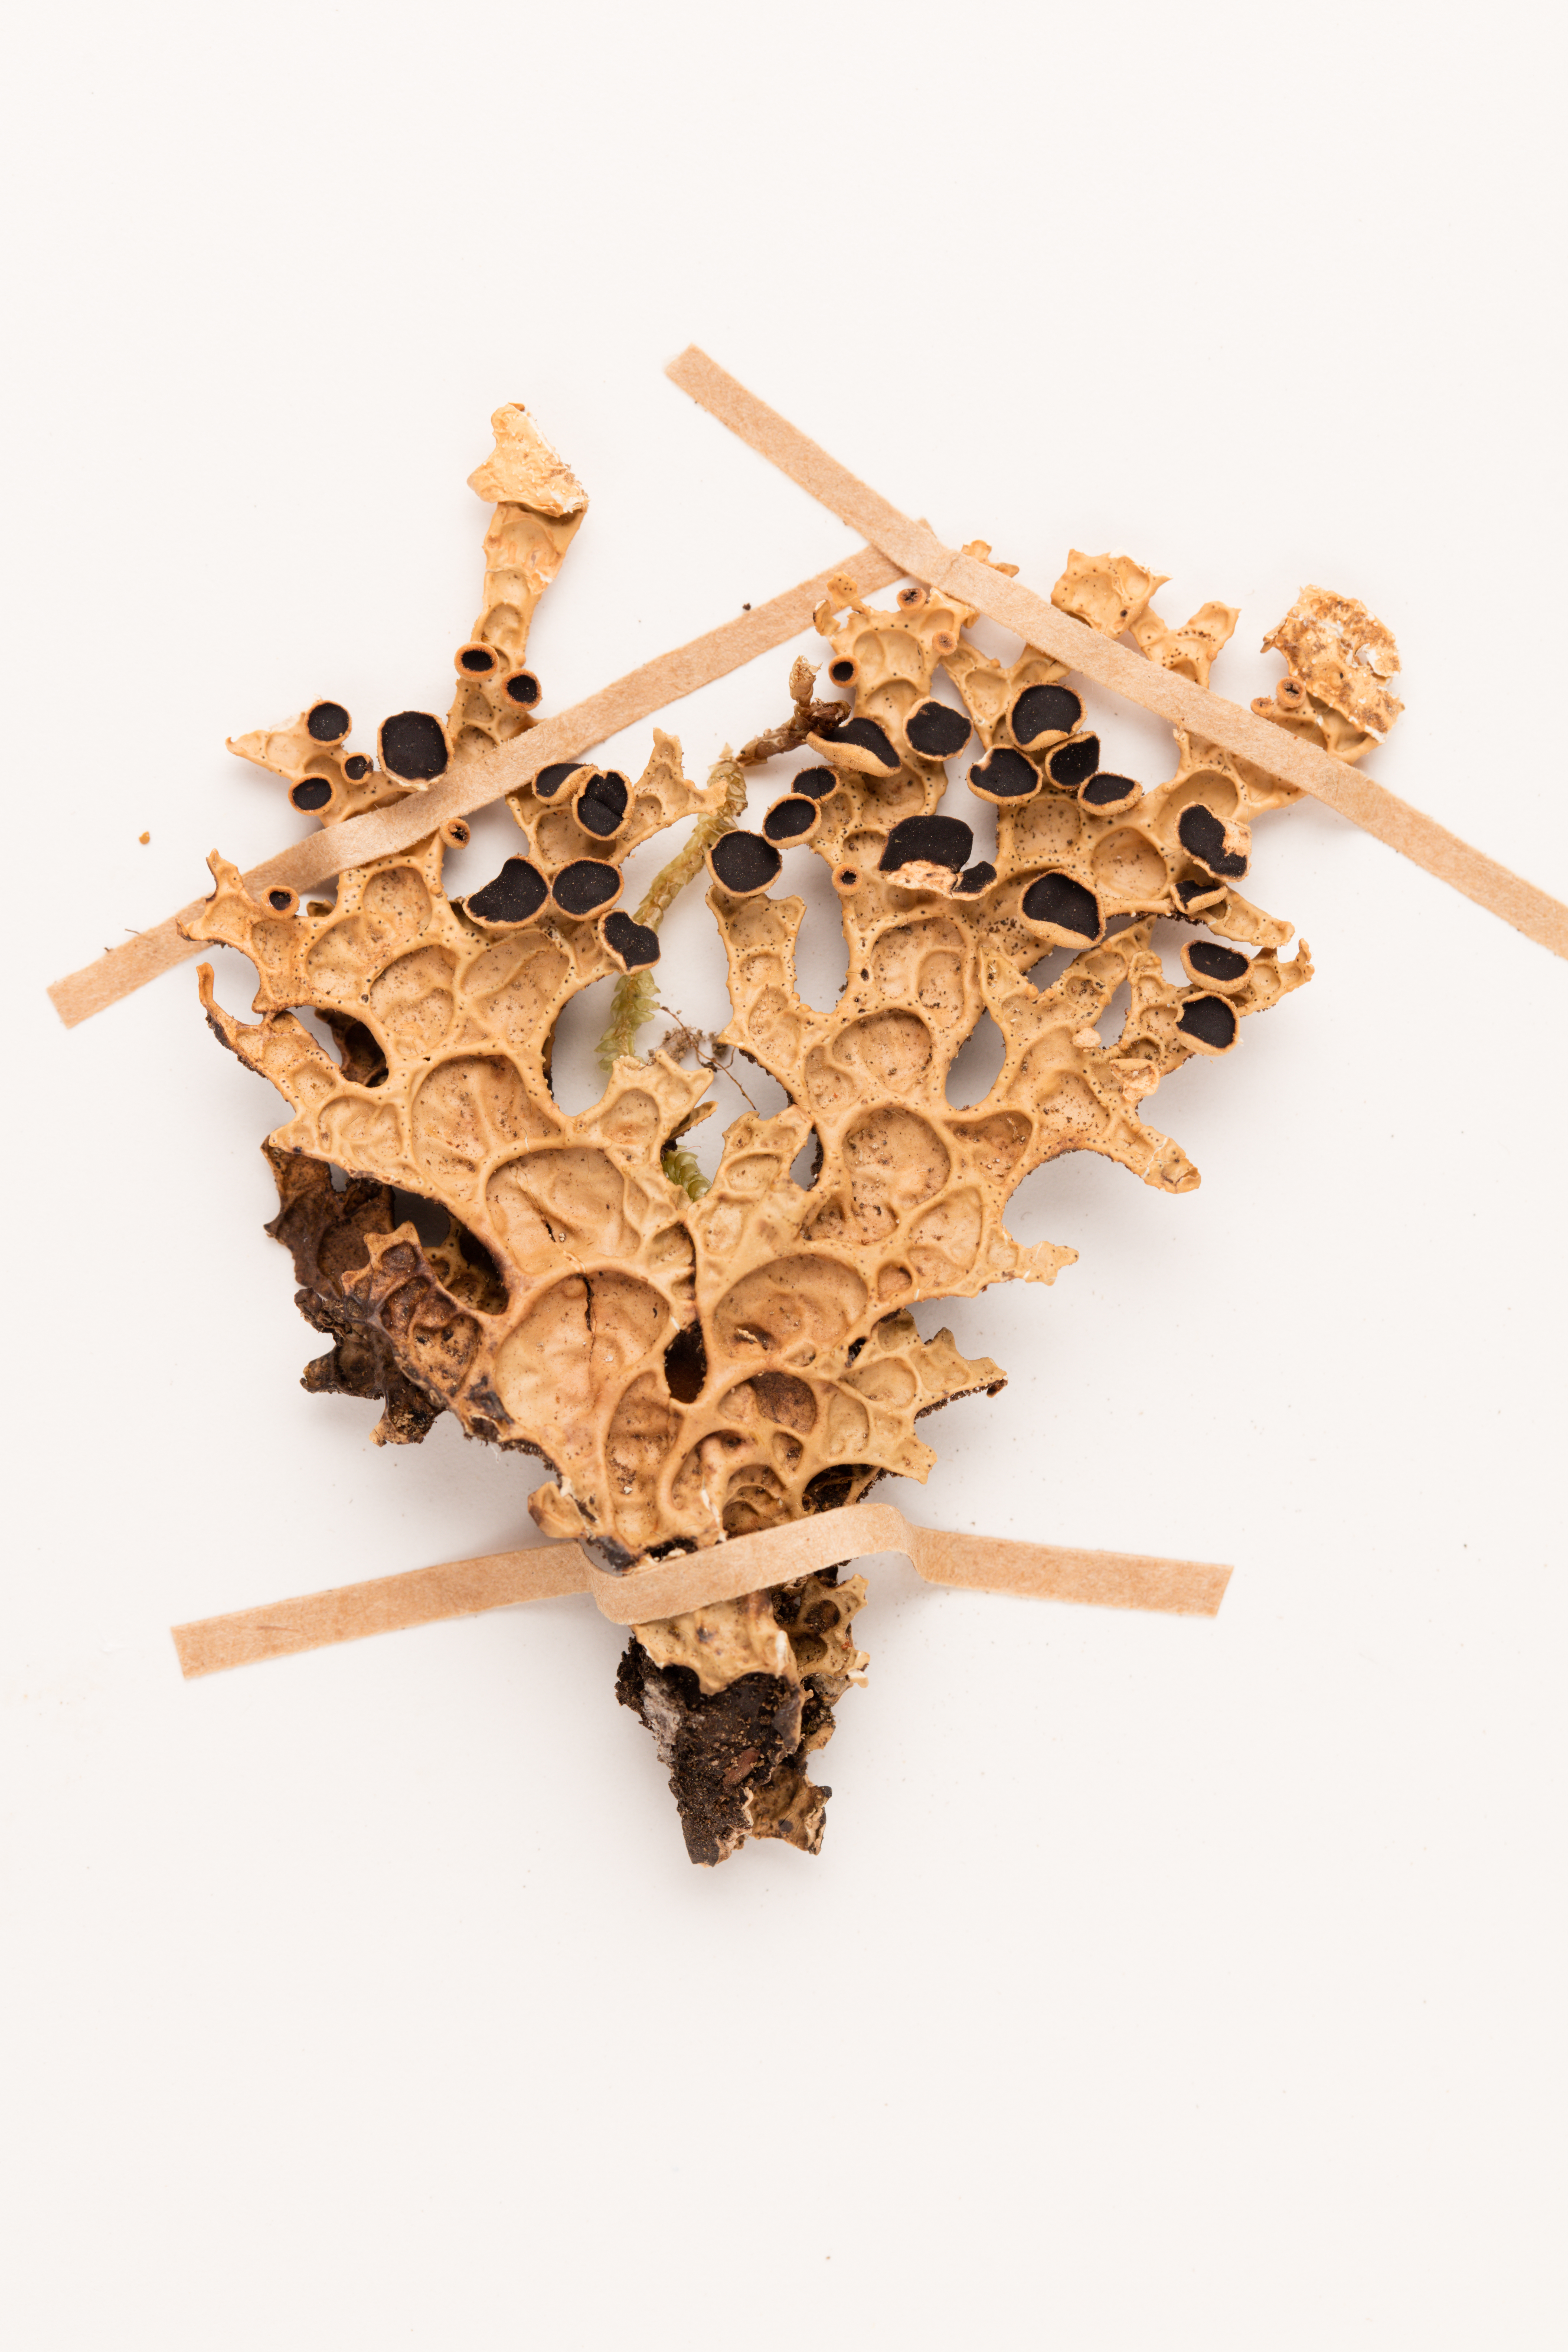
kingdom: Fungi
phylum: Ascomycota
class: Lecanoromycetes
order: Peltigerales
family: Lobariaceae
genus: Pseudocyphellaria
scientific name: Pseudocyphellaria durietzii
